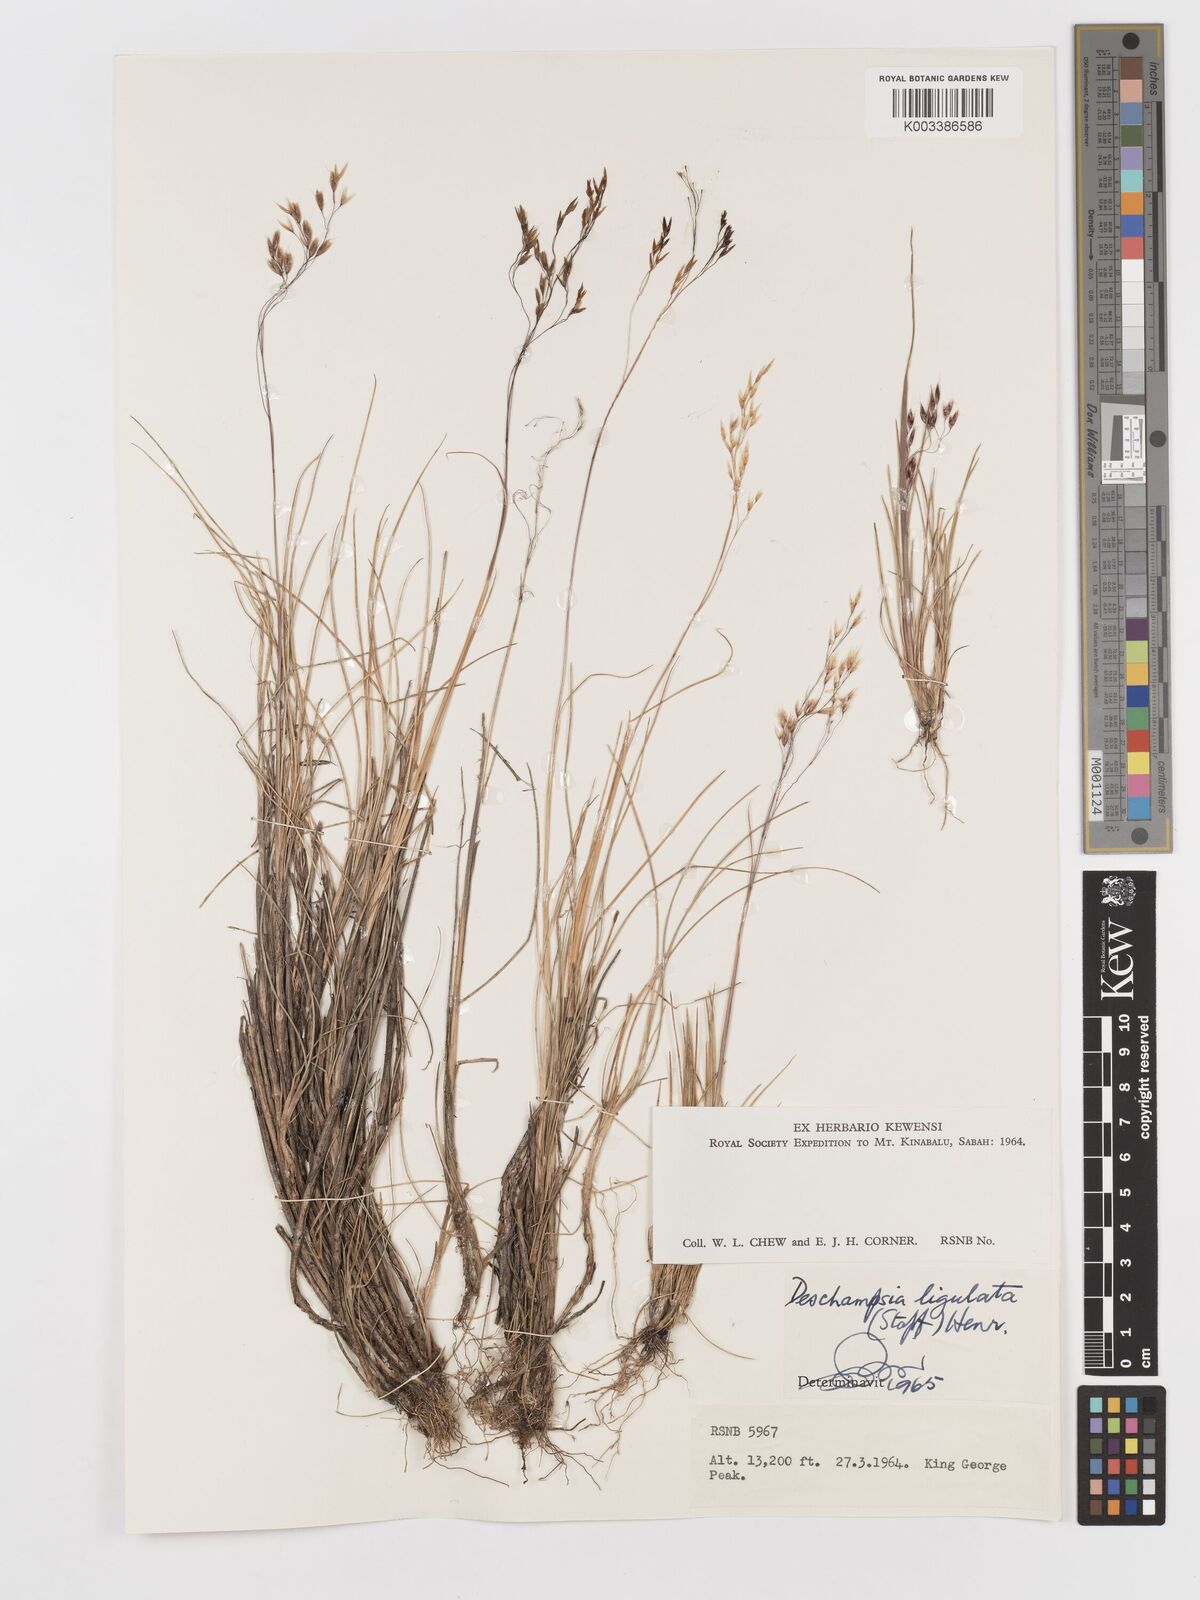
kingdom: Plantae
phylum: Tracheophyta
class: Liliopsida
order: Poales
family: Poaceae
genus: Avenella
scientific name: Avenella flexuosa
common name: Wavy hairgrass
